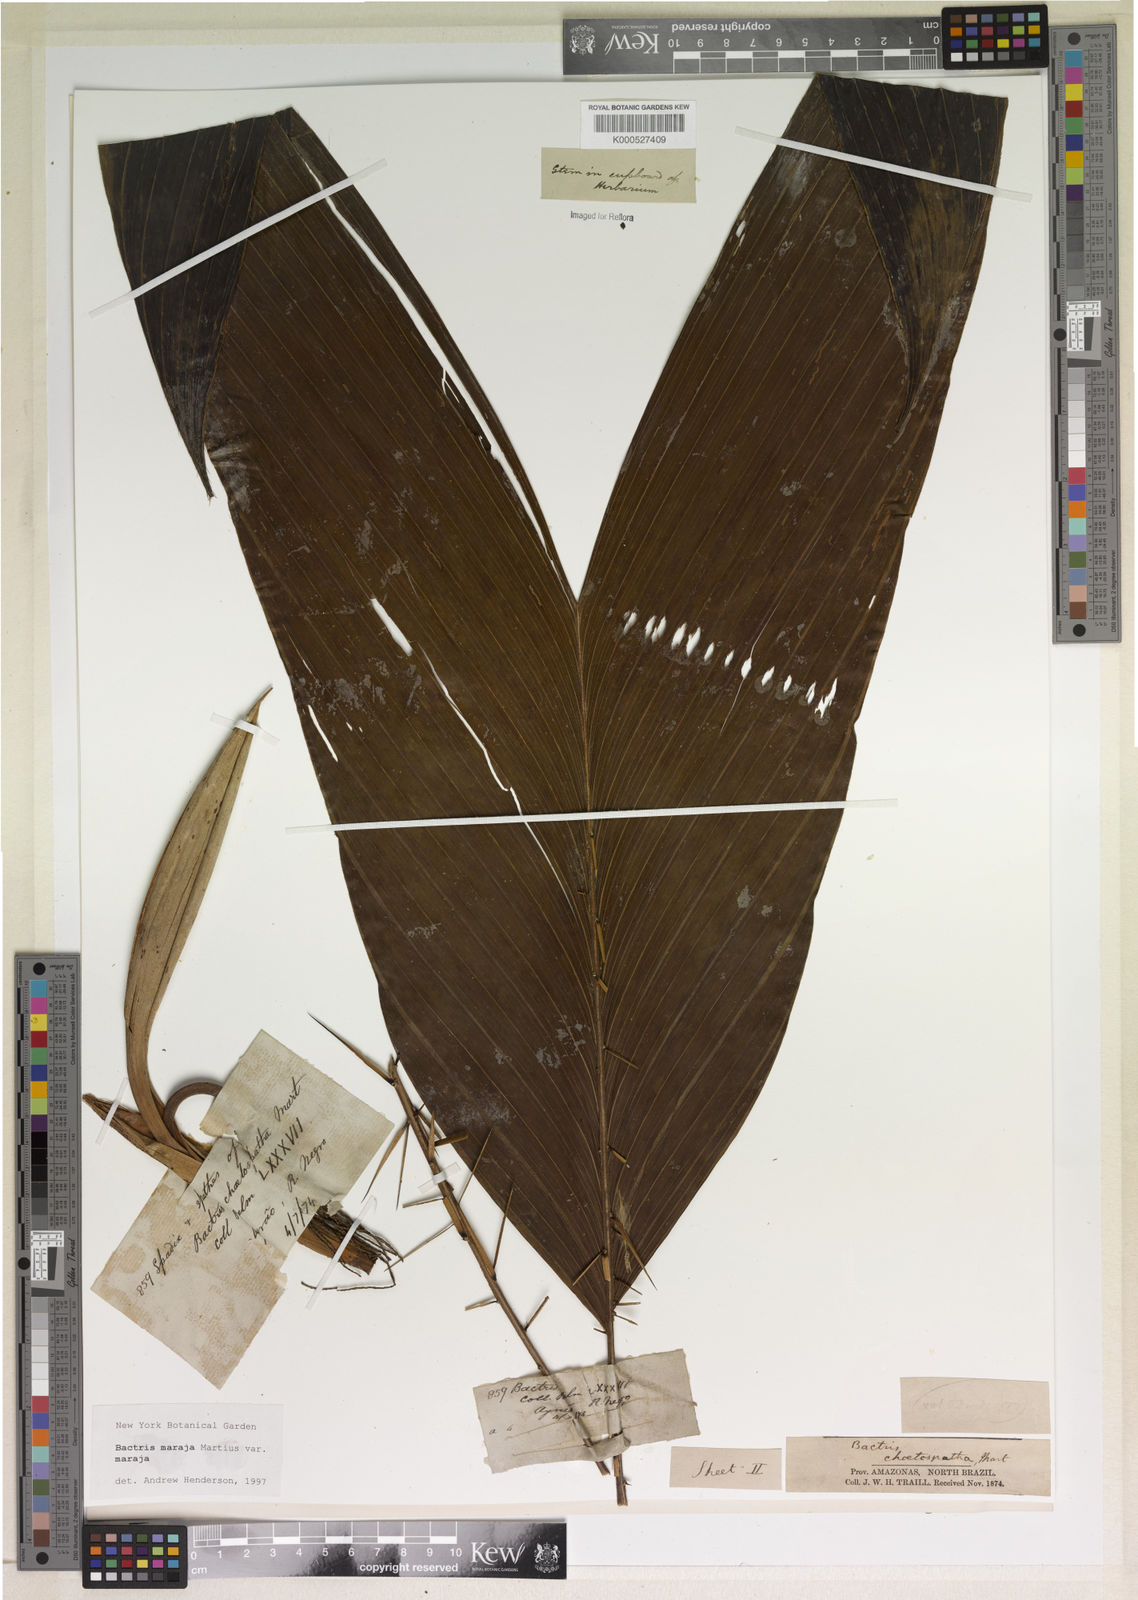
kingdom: Plantae
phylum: Tracheophyta
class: Liliopsida
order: Arecales
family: Arecaceae
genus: Bactris
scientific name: Bactris maraja
